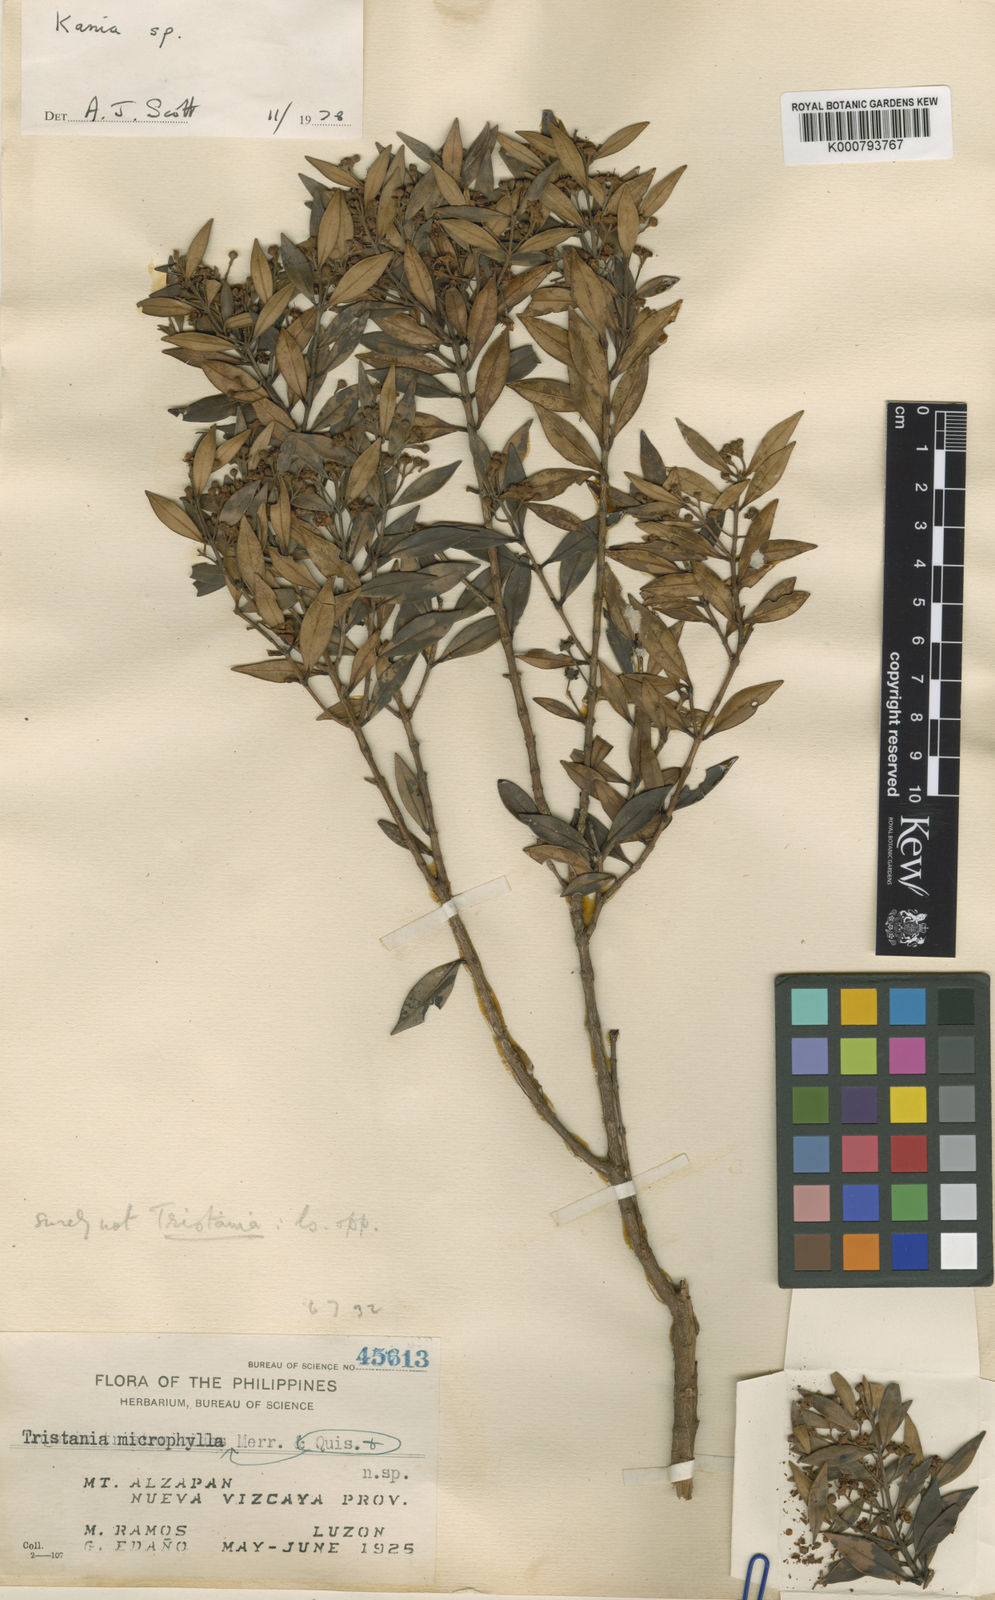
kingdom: Plantae
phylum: Tracheophyta
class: Magnoliopsida
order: Myrtales
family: Myrtaceae
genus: Kania
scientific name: Kania
